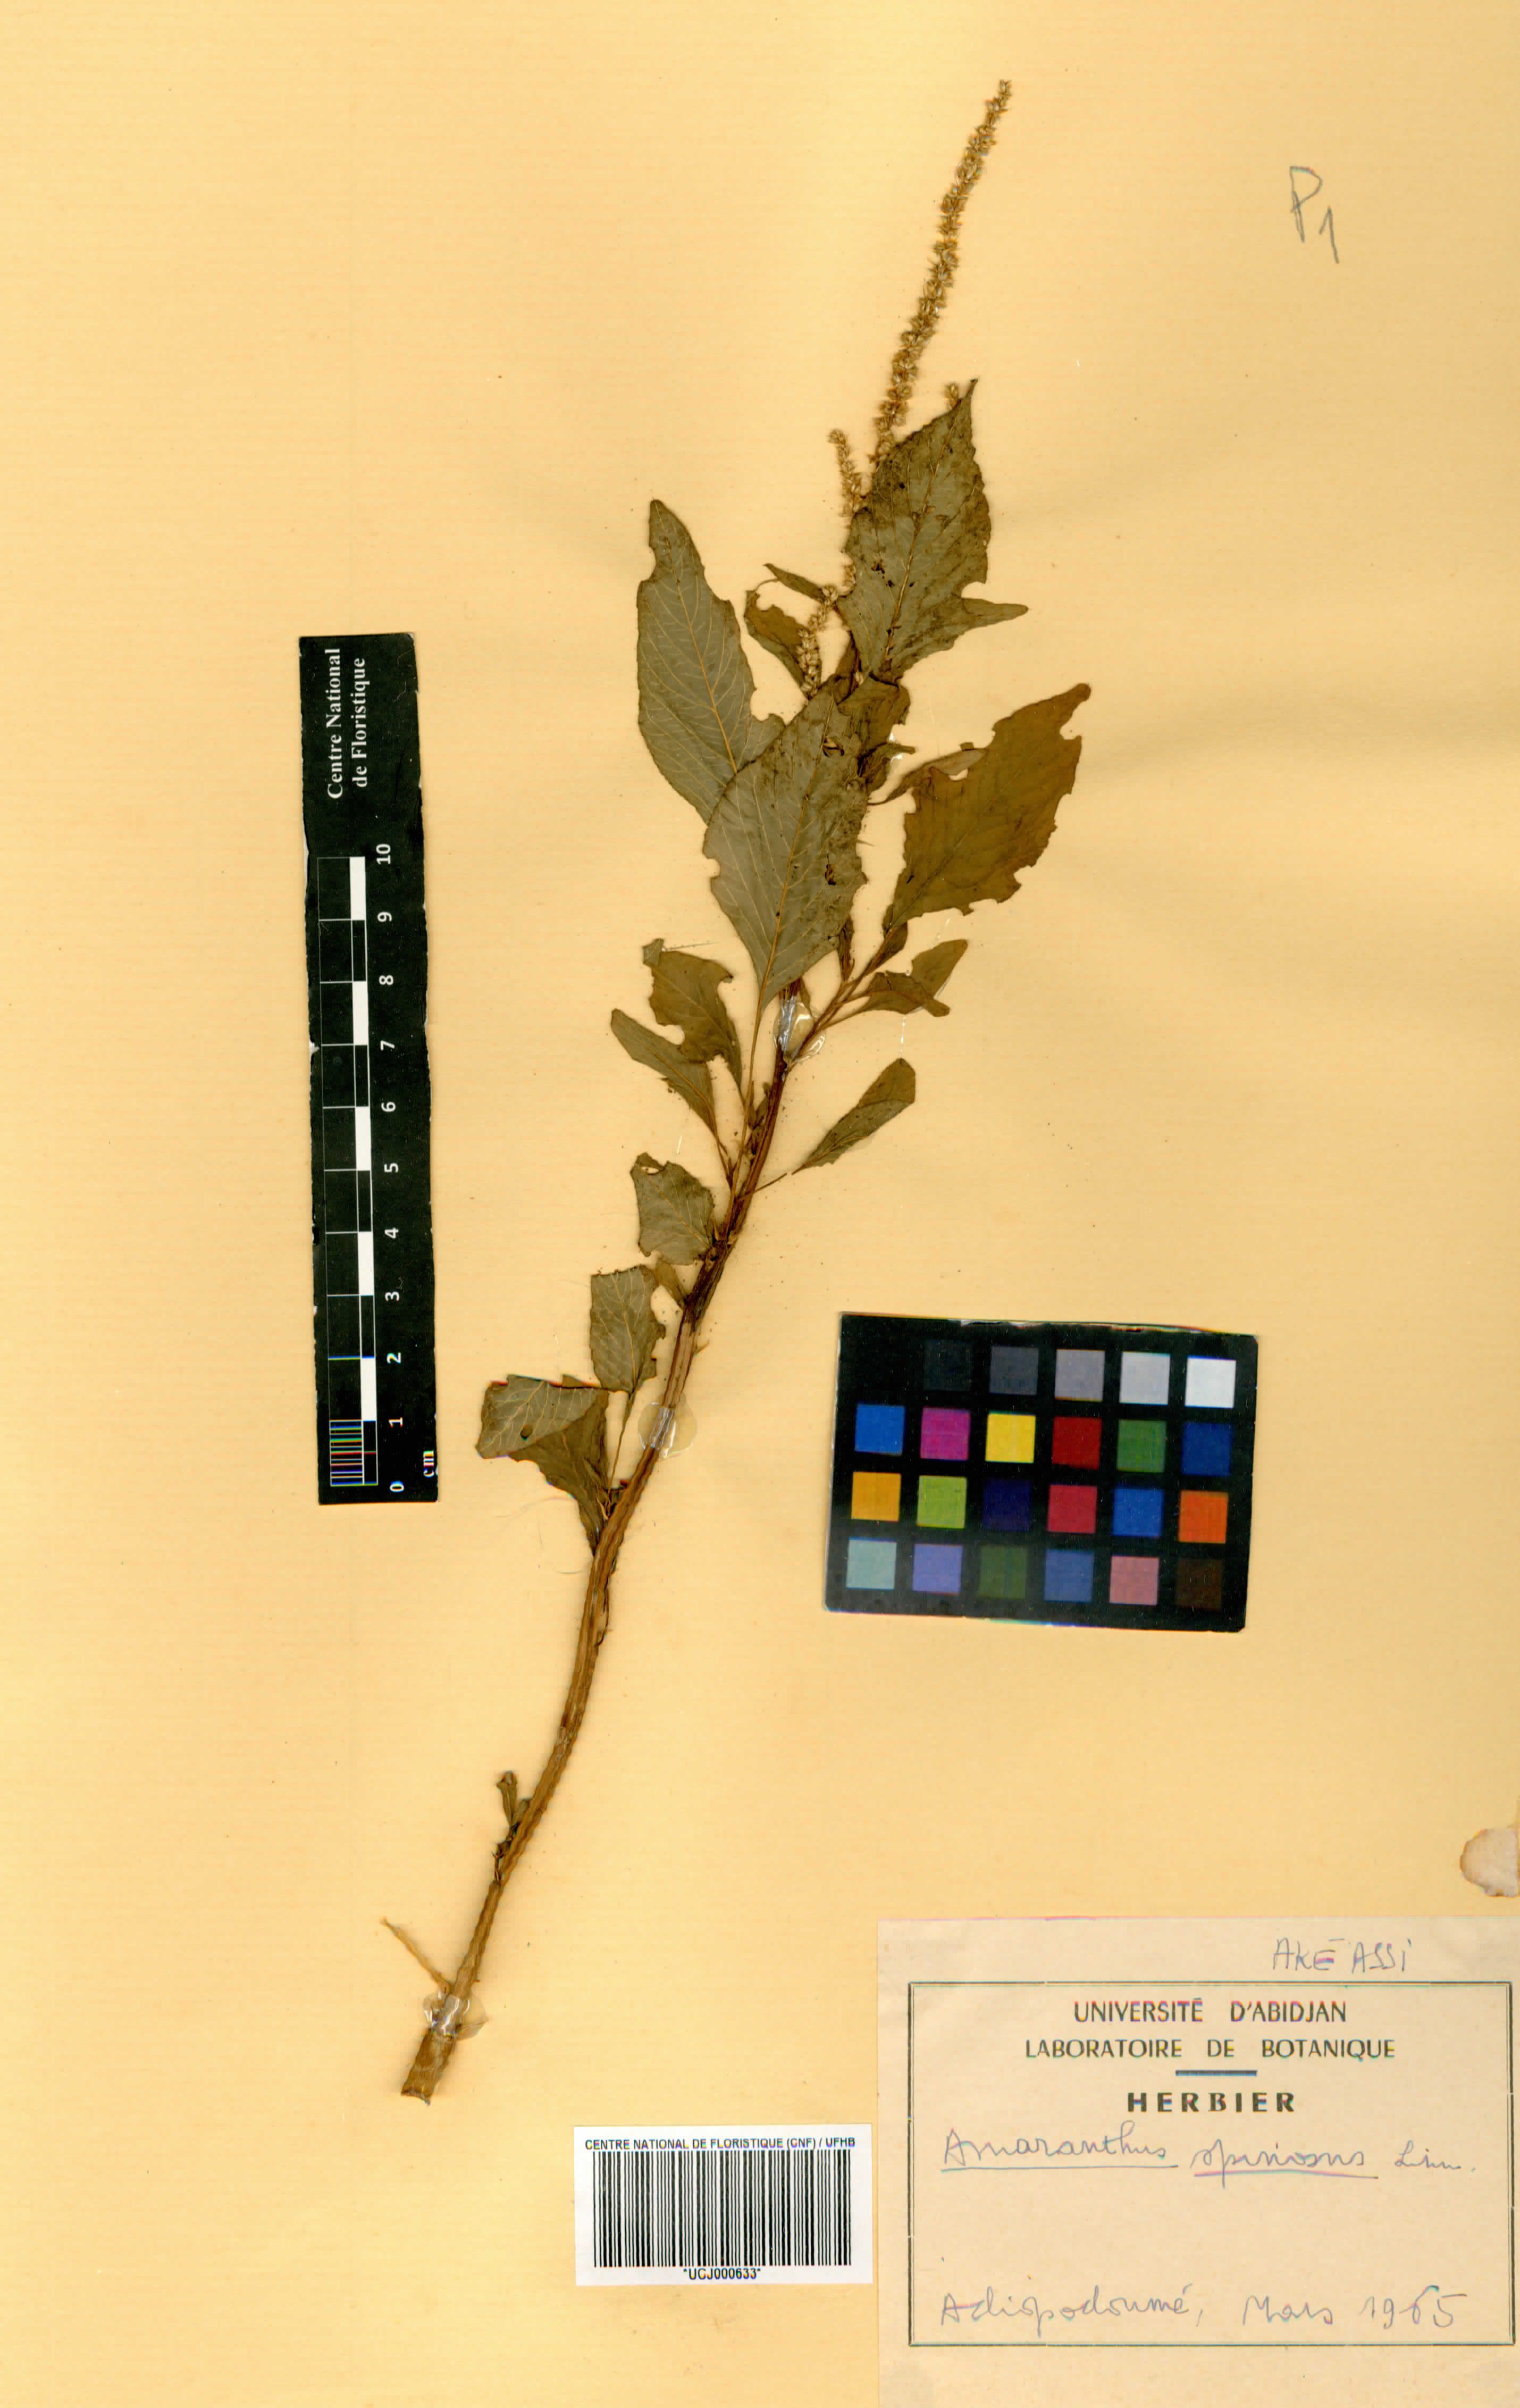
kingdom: Plantae
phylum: Tracheophyta
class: Magnoliopsida
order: Caryophyllales
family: Amaranthaceae
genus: Amaranthus
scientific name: Amaranthus spinosus
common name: Spiny amaranth
